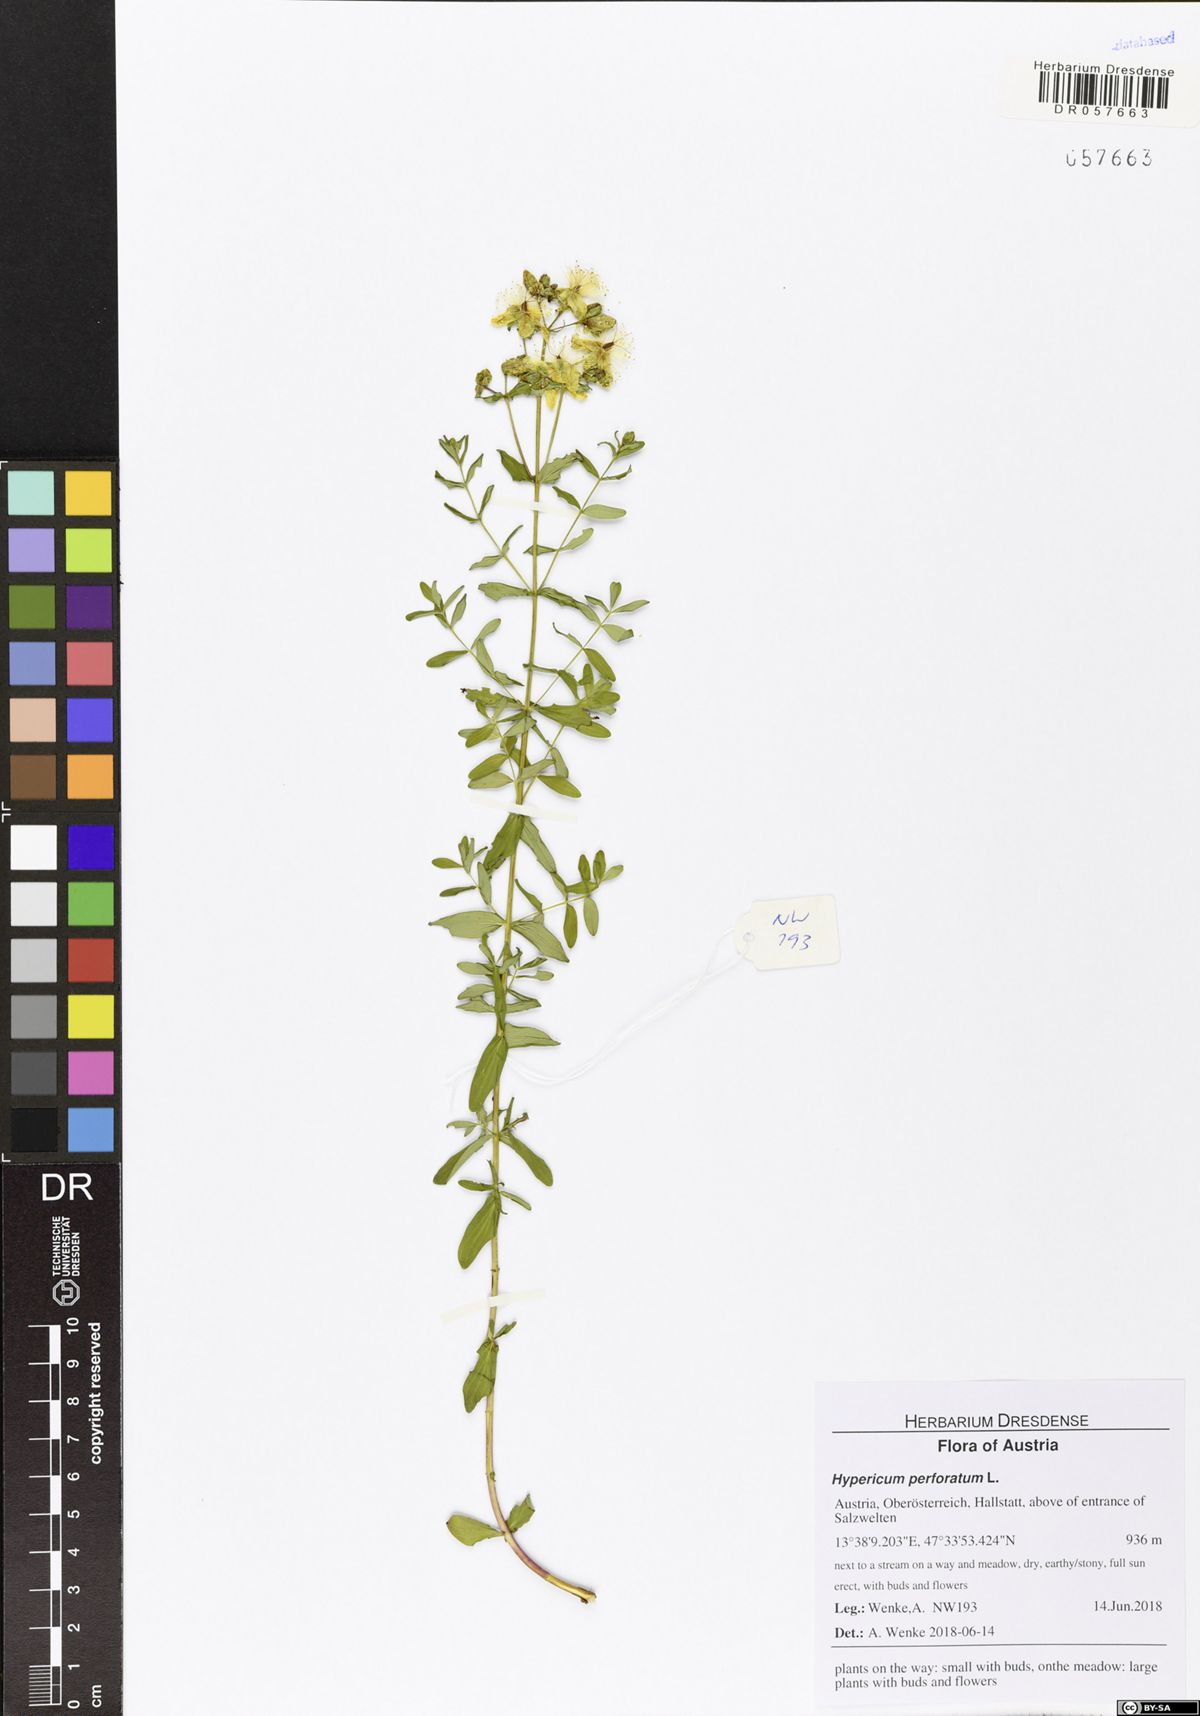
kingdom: Plantae
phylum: Tracheophyta
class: Magnoliopsida
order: Malpighiales
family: Hypericaceae
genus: Hypericum
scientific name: Hypericum perforatum
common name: Common st. johnswort
